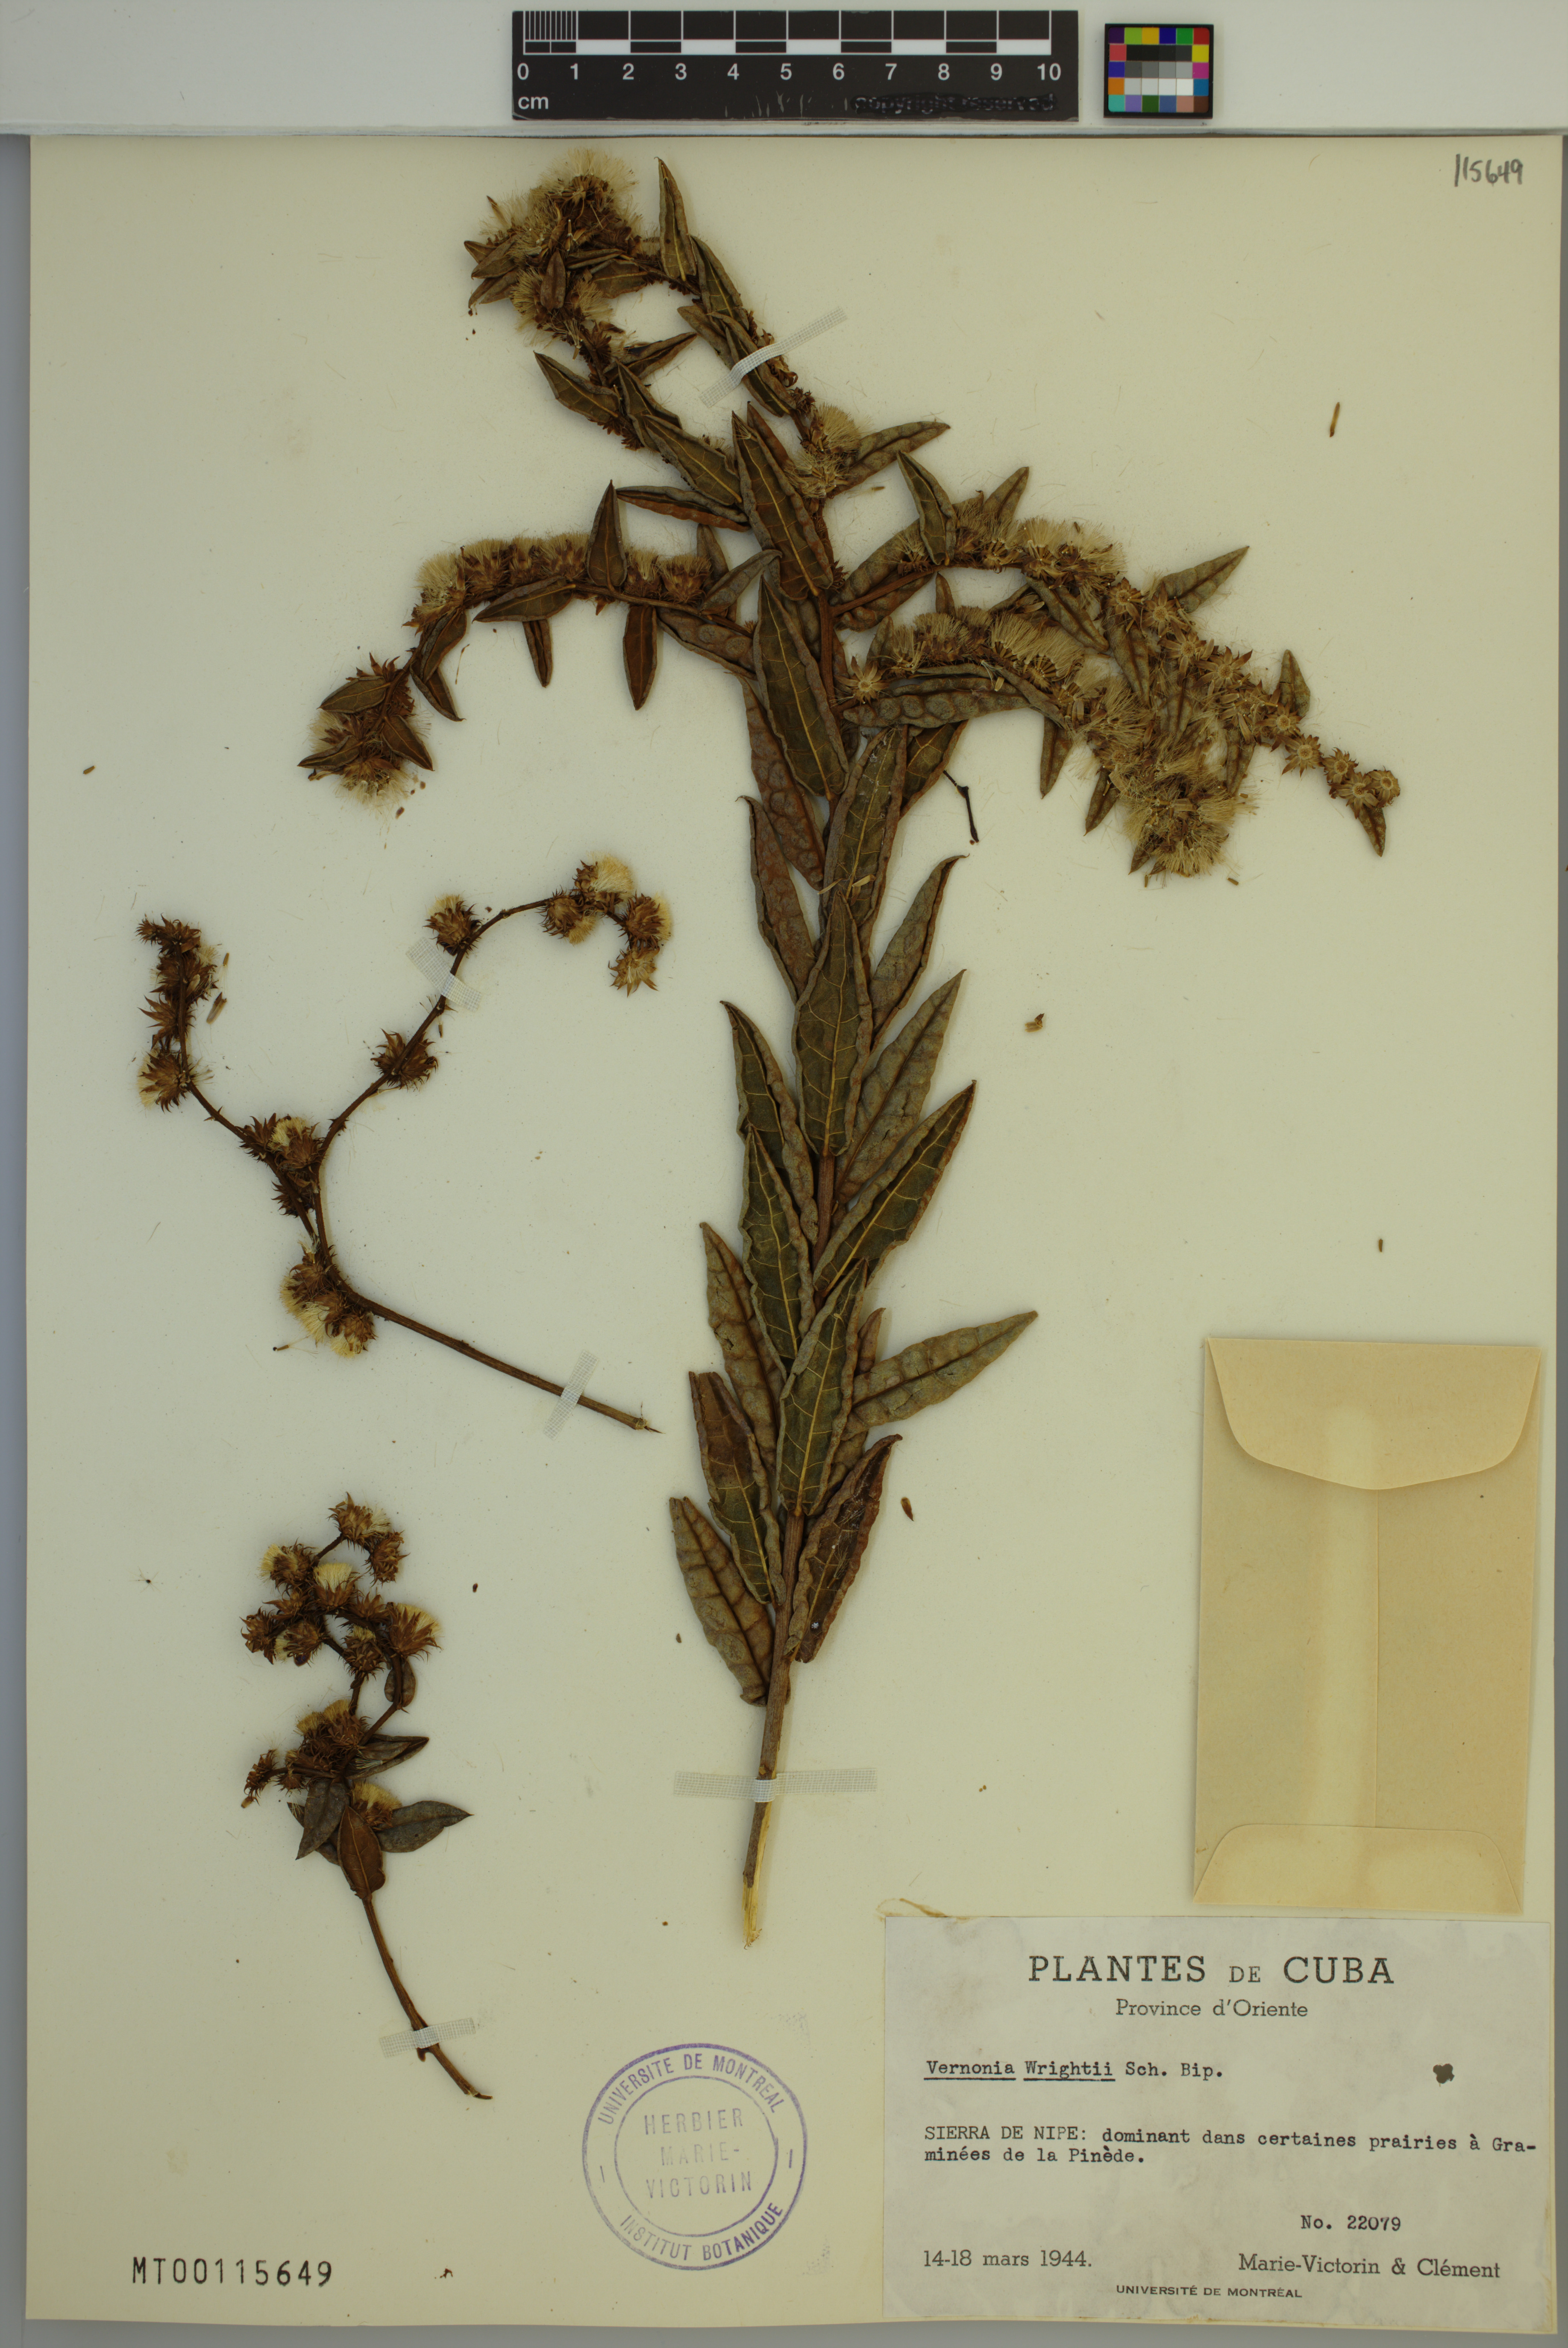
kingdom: Plantae
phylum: Tracheophyta
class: Magnoliopsida
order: Asterales
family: Asteraceae
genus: Lepidaploa
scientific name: Lepidaploa wrightii
